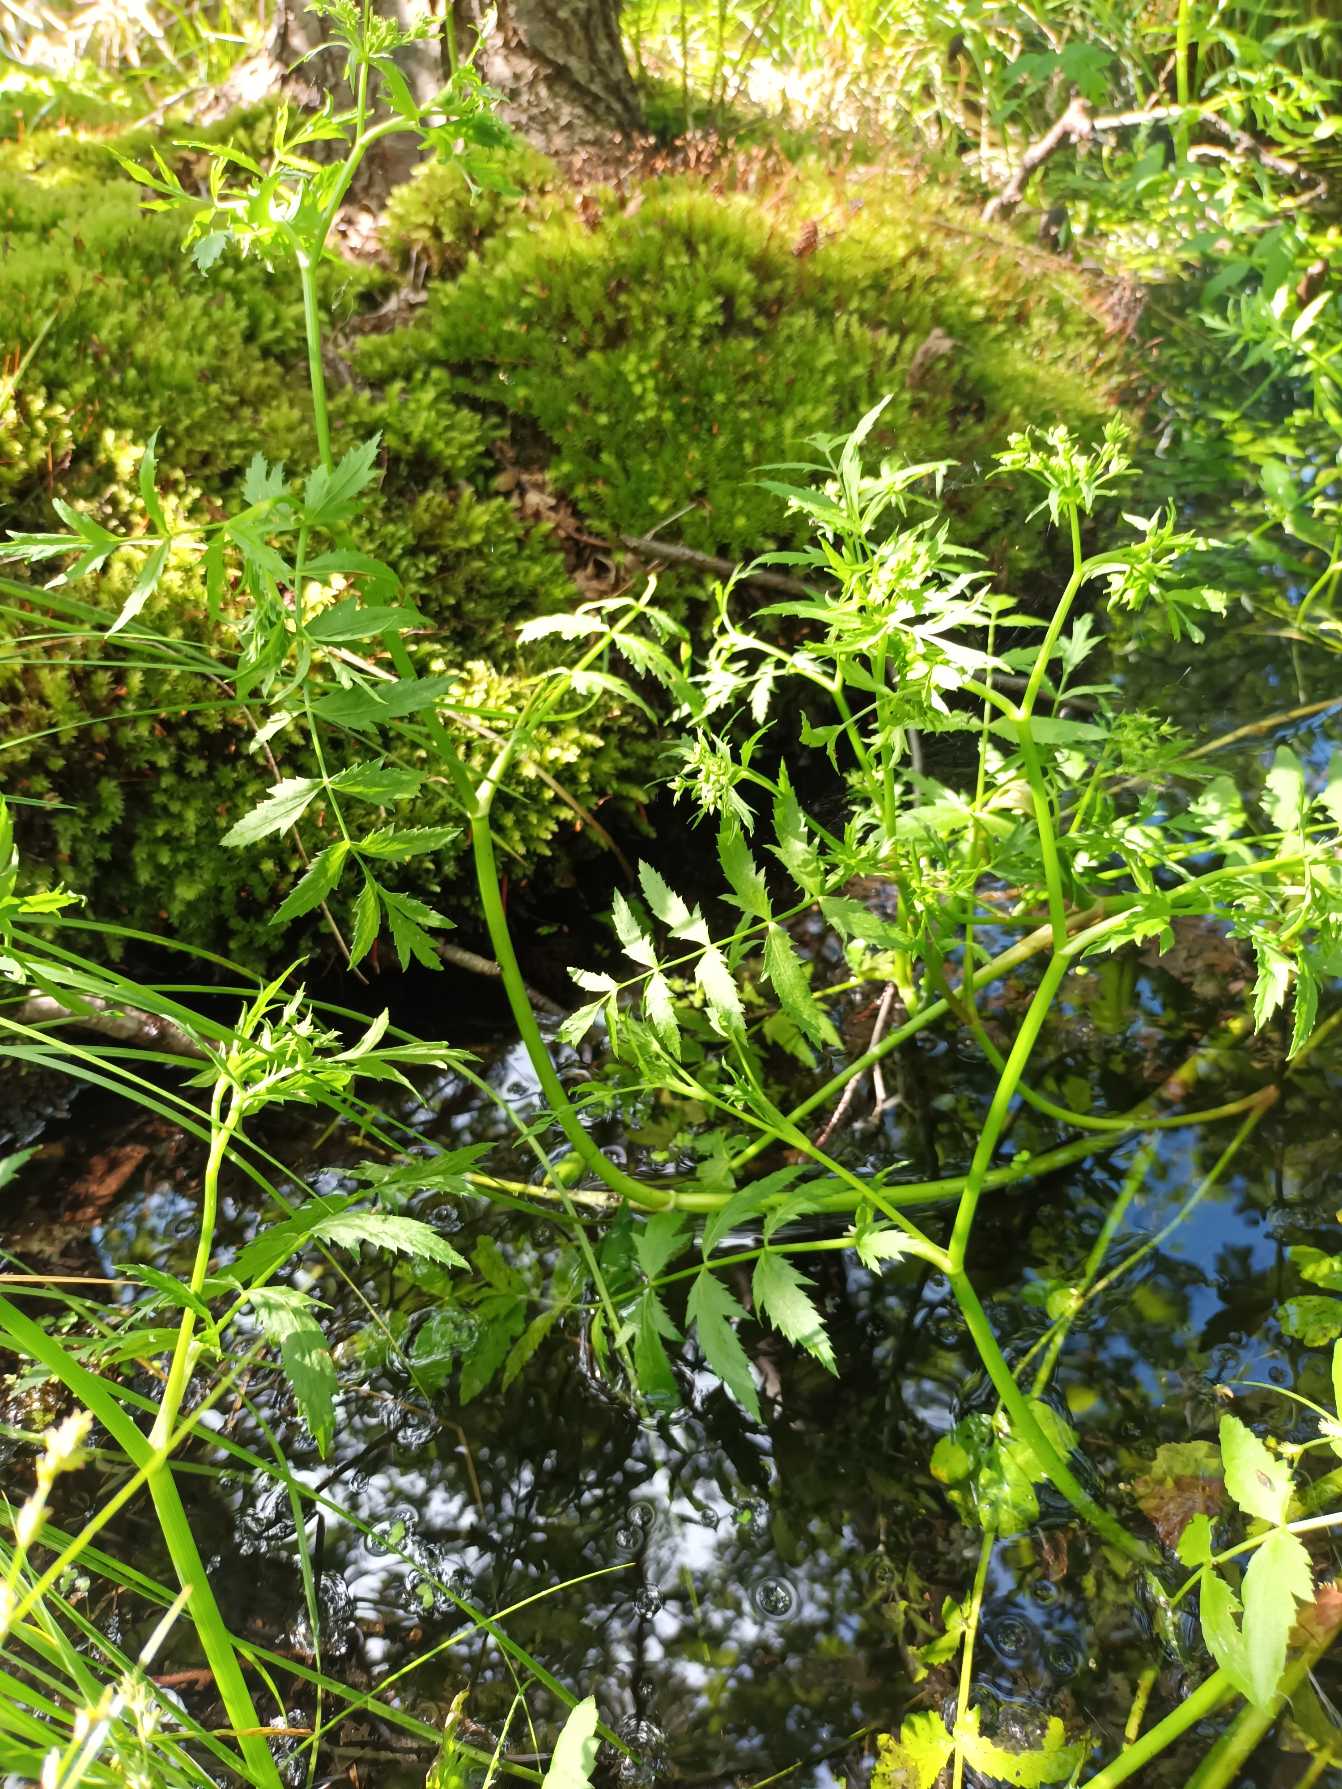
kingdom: Plantae
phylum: Tracheophyta
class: Magnoliopsida
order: Apiales
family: Apiaceae
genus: Berula
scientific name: Berula erecta
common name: Sideskærm
